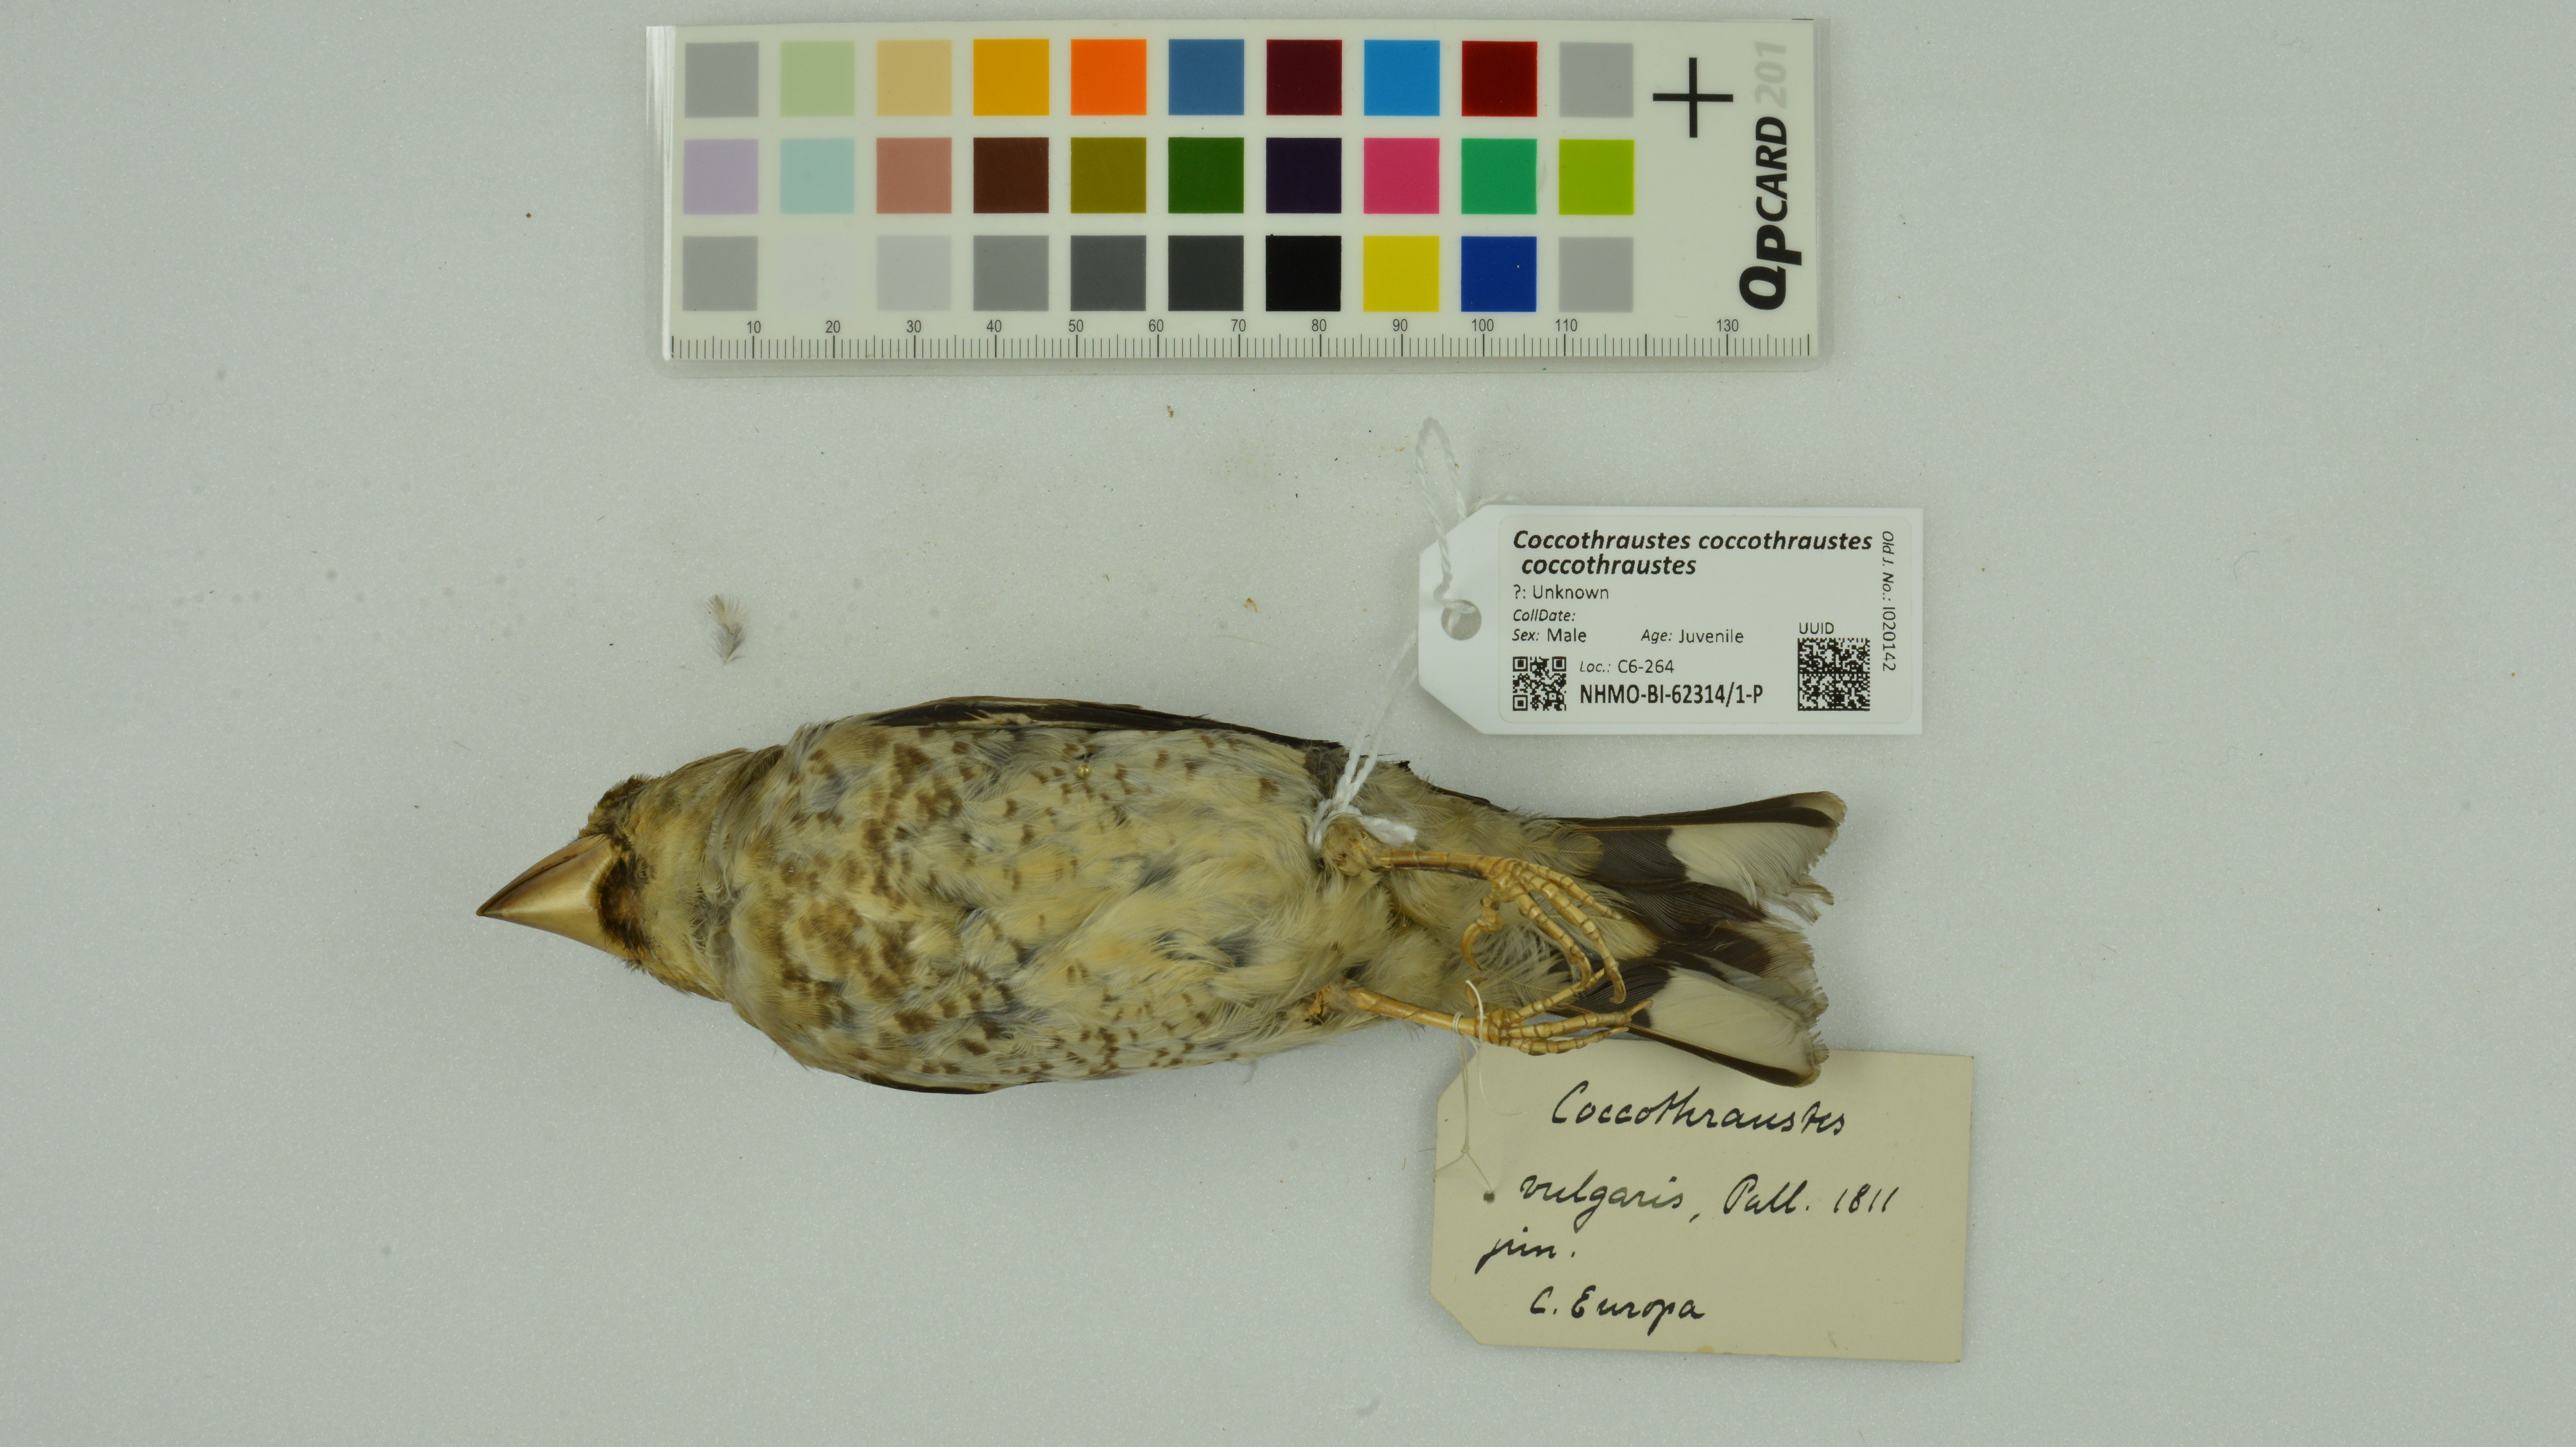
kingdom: Animalia
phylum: Chordata
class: Aves
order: Passeriformes
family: Fringillidae
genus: Coccothraustes
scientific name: Coccothraustes coccothraustes
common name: Hawfinch
